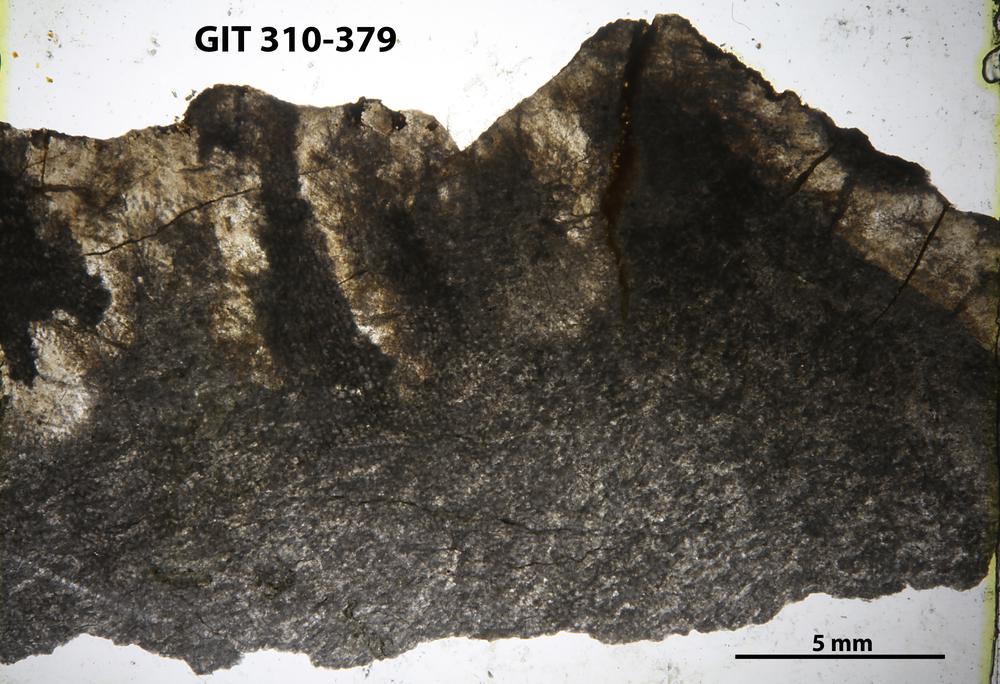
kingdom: Animalia
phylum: Porifera
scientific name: Porifera
